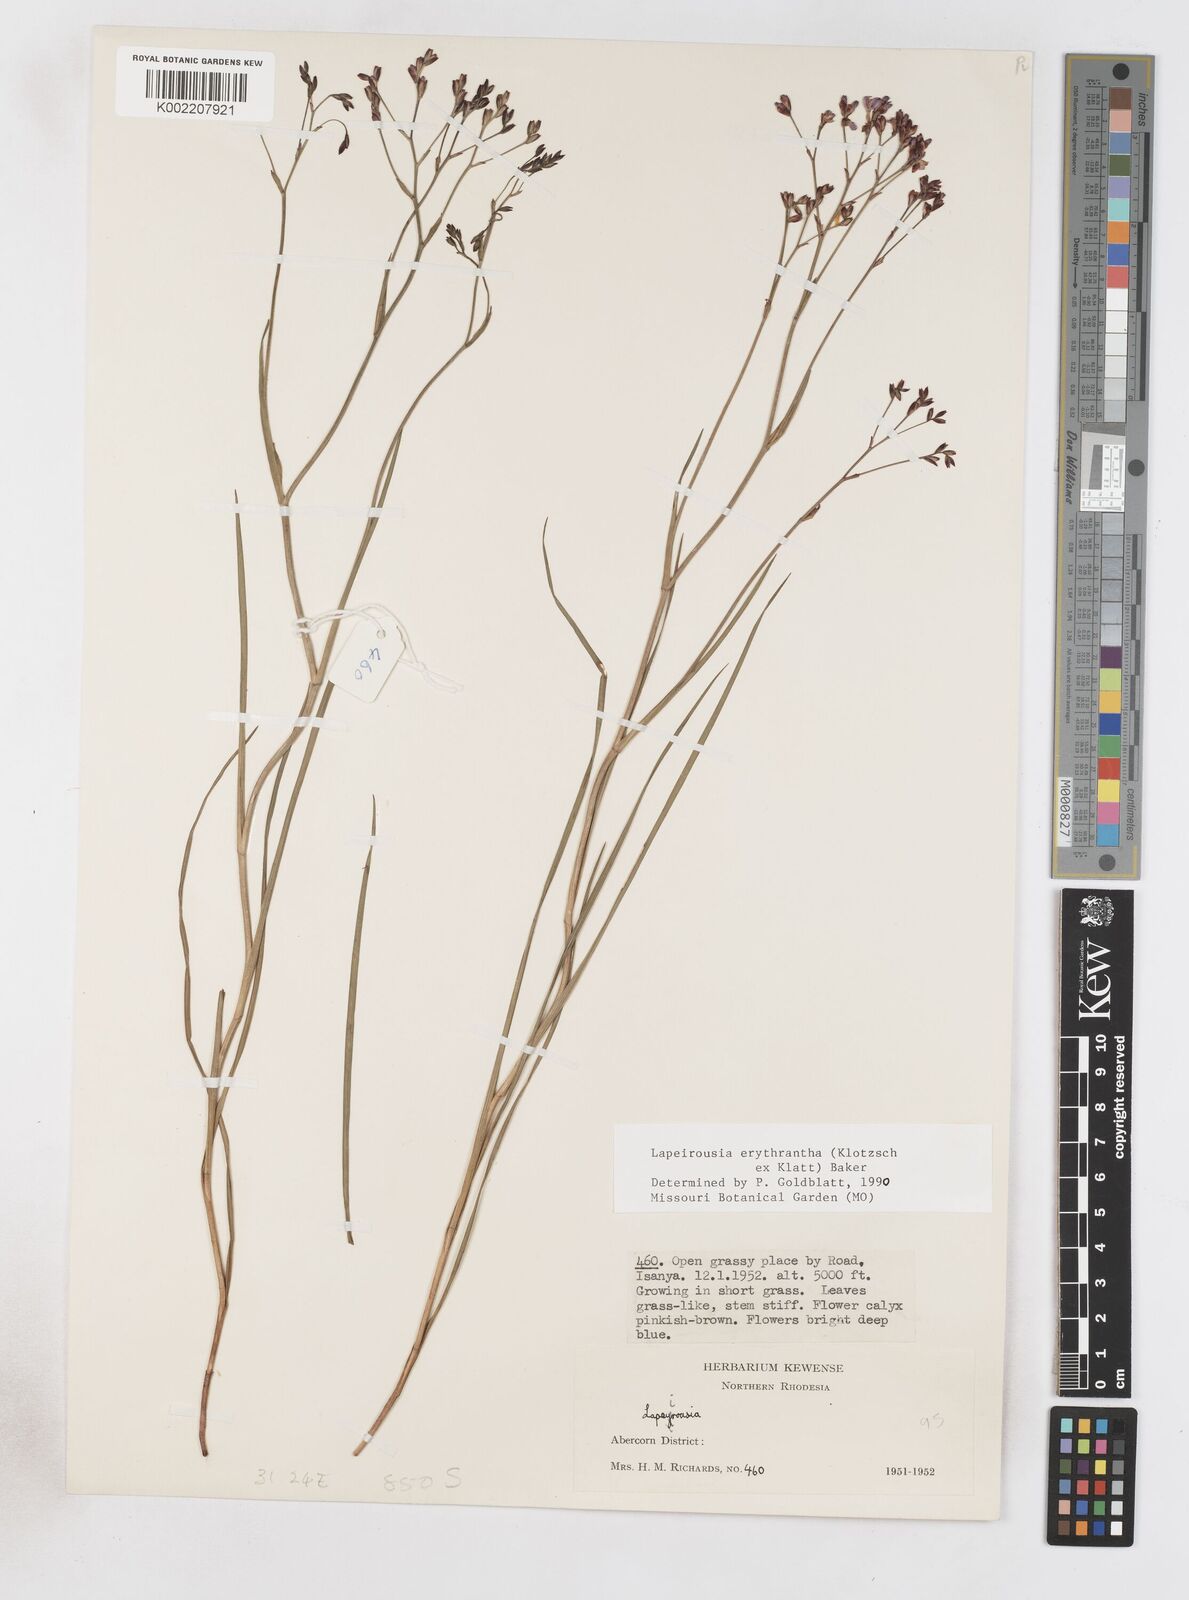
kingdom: Plantae
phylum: Tracheophyta
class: Liliopsida
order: Asparagales
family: Iridaceae
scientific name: Iridaceae
